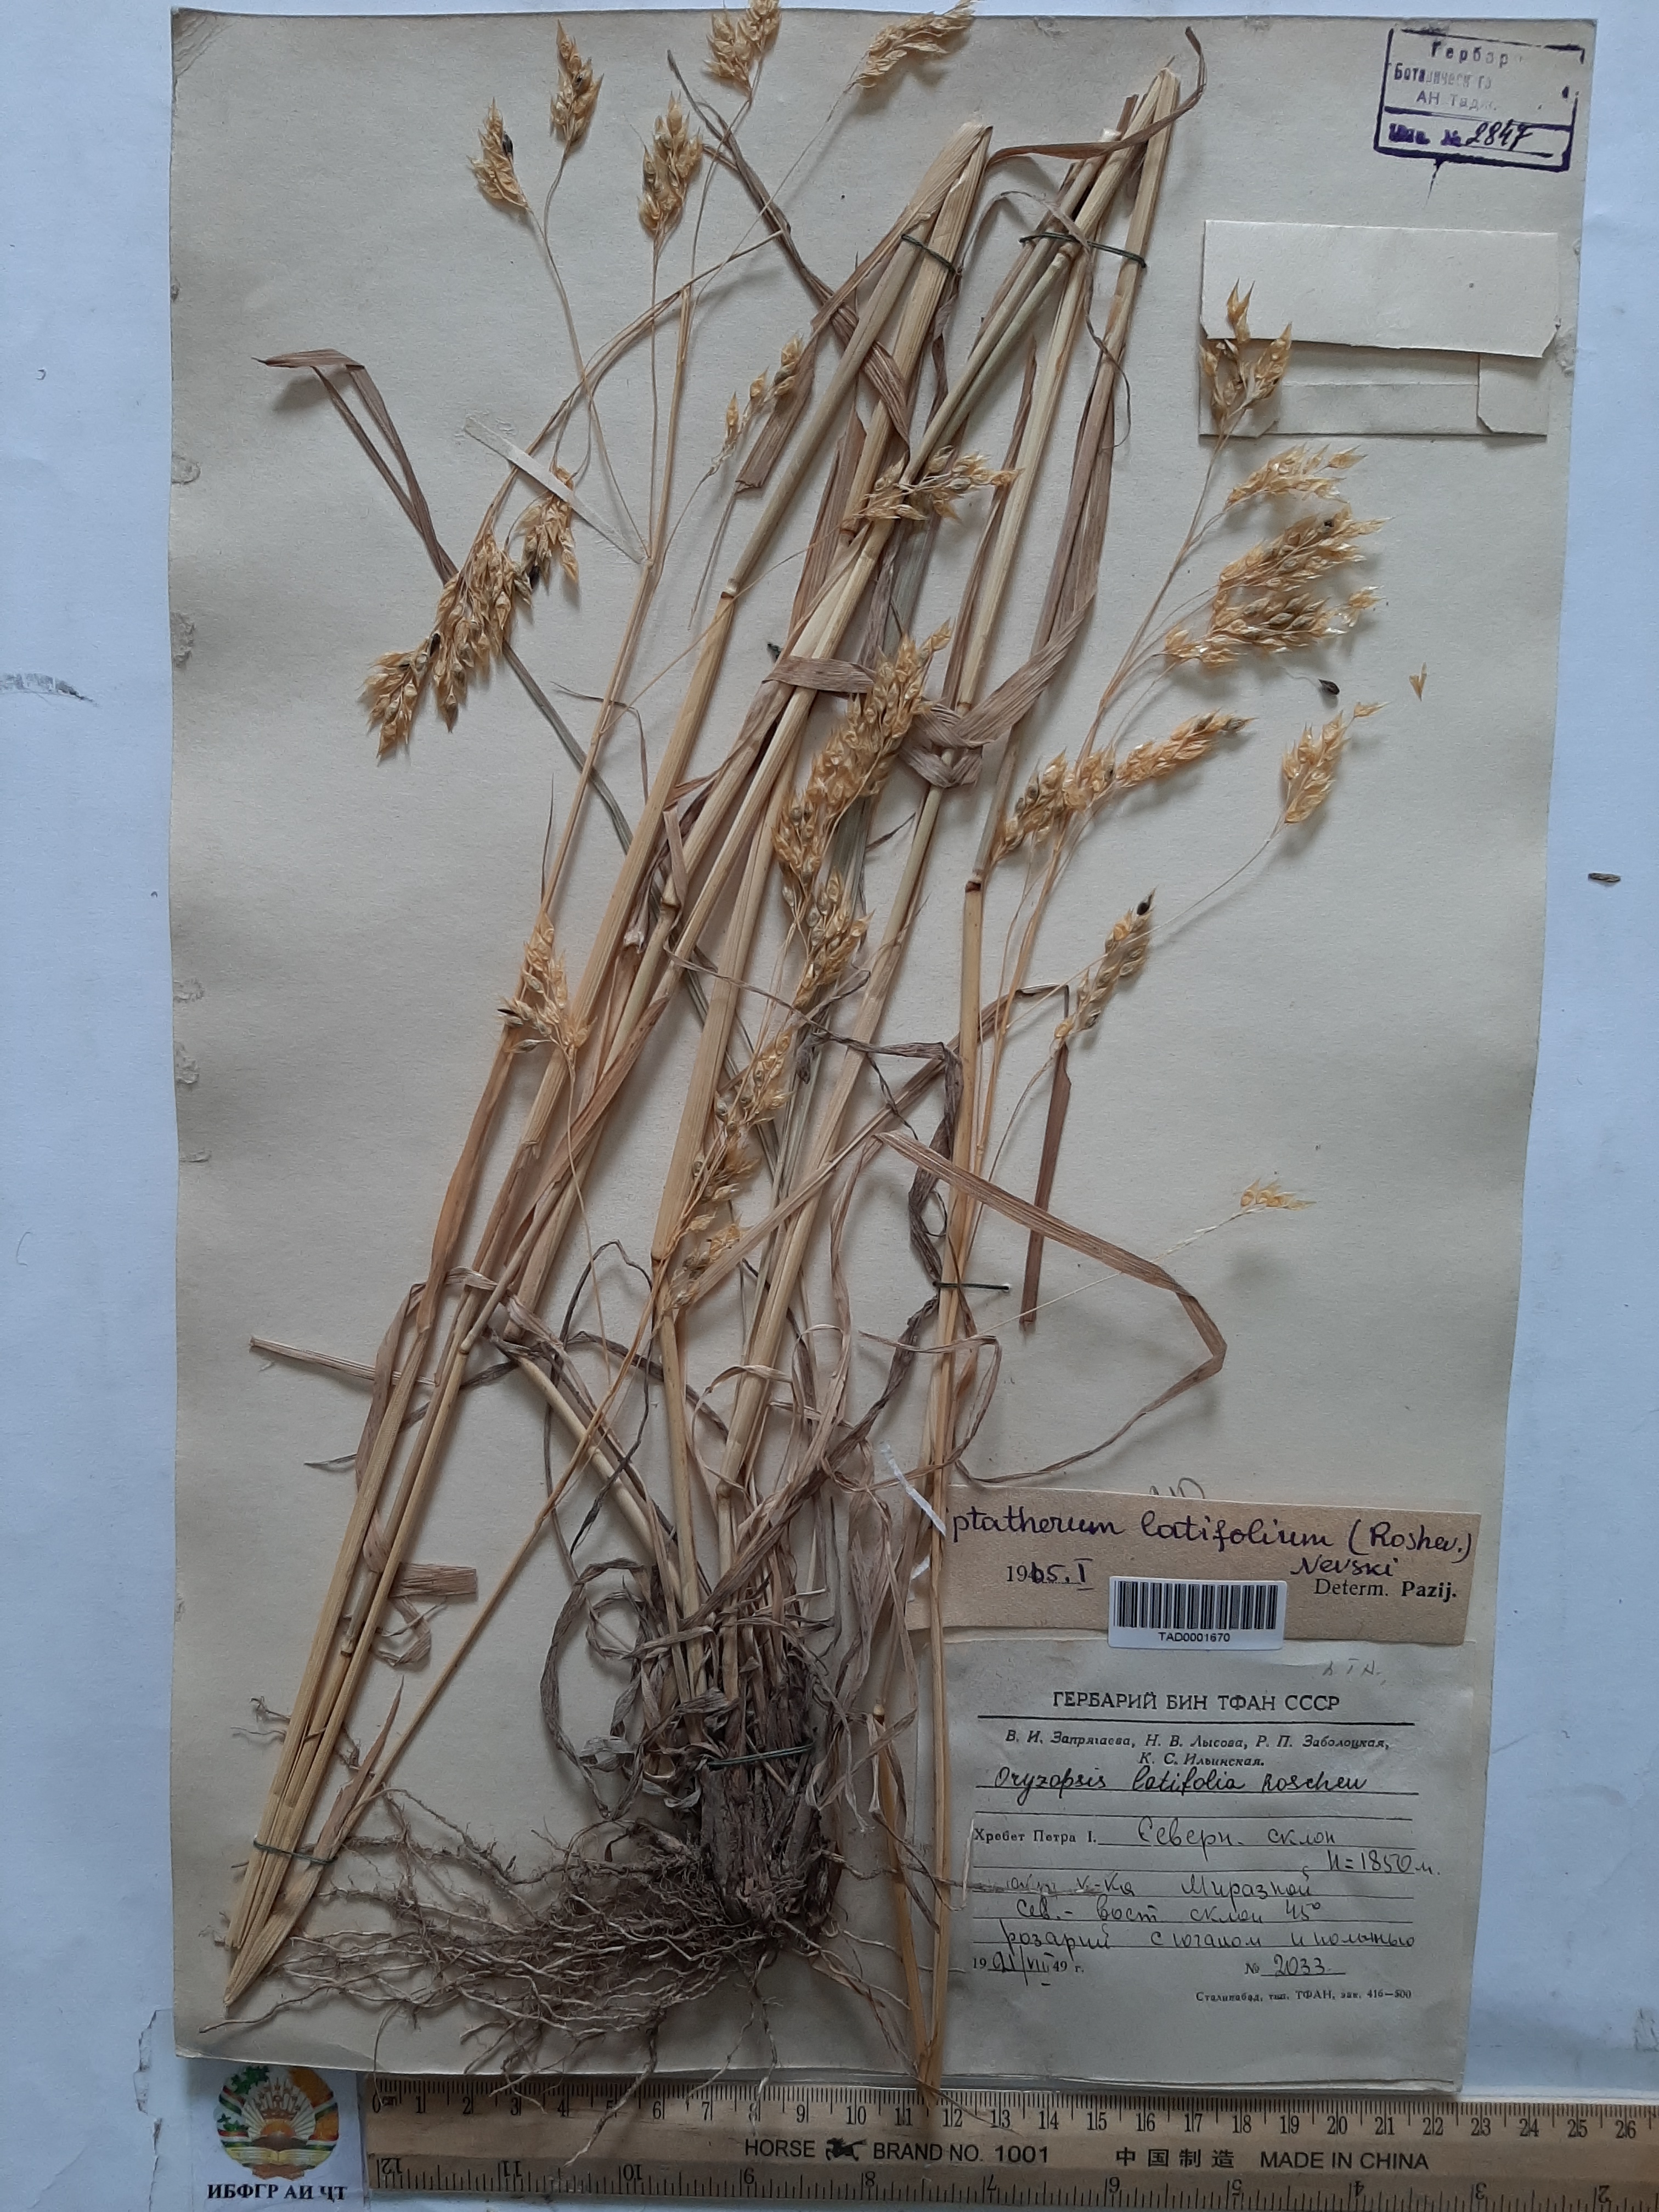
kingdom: Plantae
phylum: Tracheophyta
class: Liliopsida
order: Poales
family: Poaceae
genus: Piptatherum
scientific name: Piptatherum latifolium
